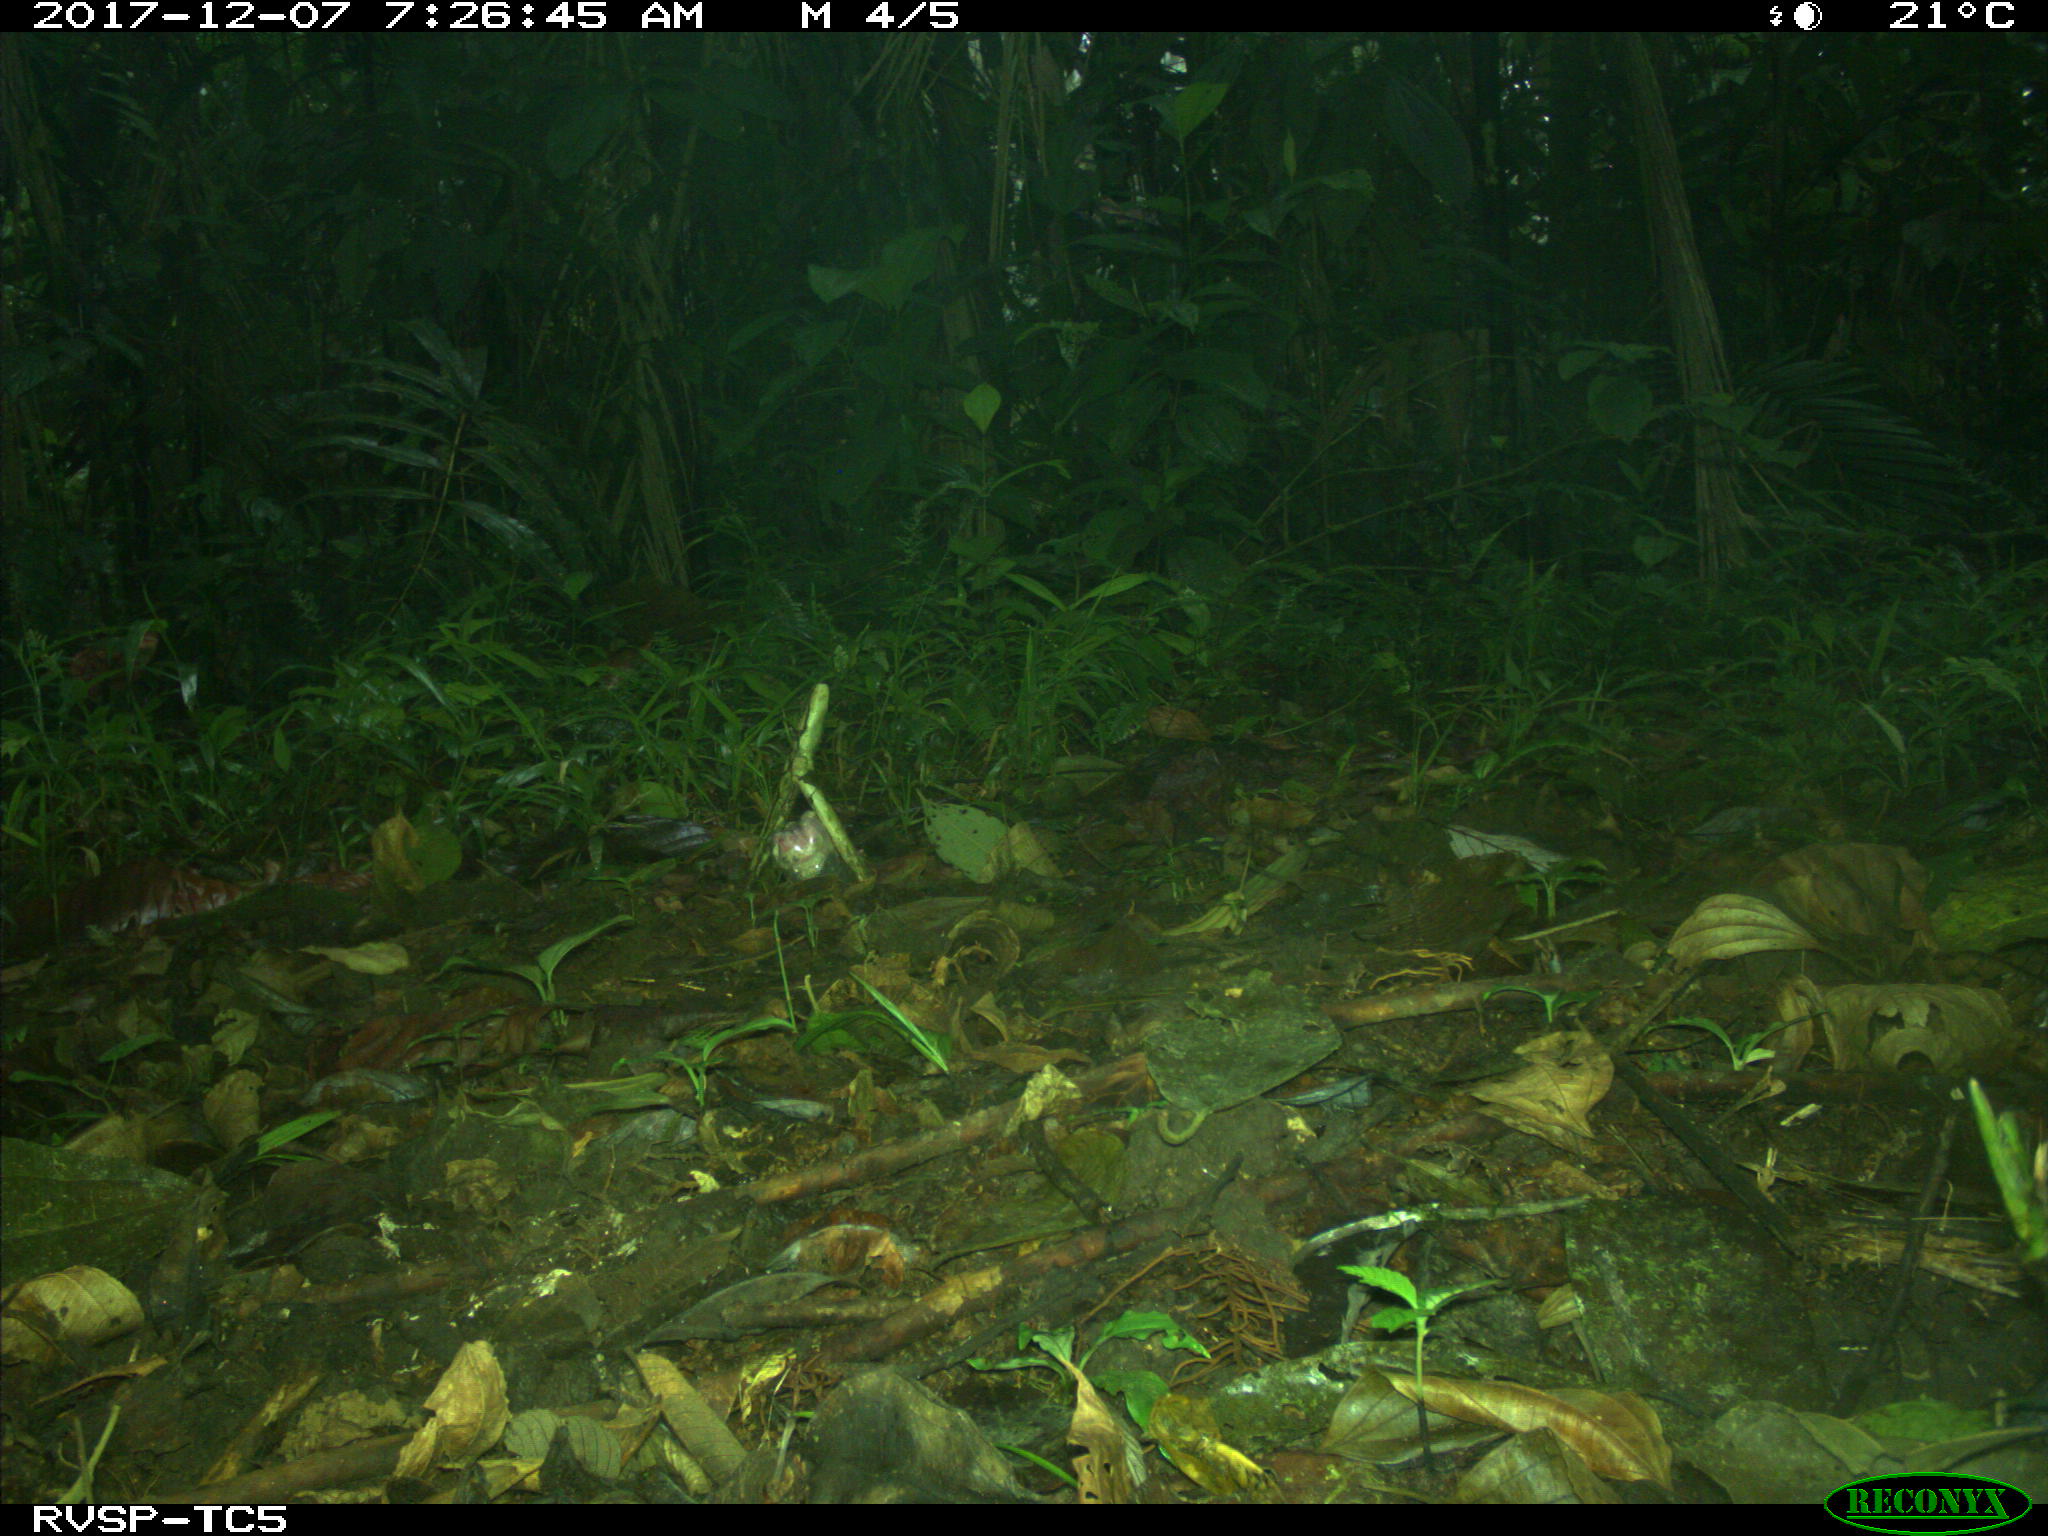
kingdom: Animalia
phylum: Chordata
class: Mammalia
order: Rodentia
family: Dasyproctidae
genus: Dasyprocta
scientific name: Dasyprocta punctata
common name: Central american agouti
